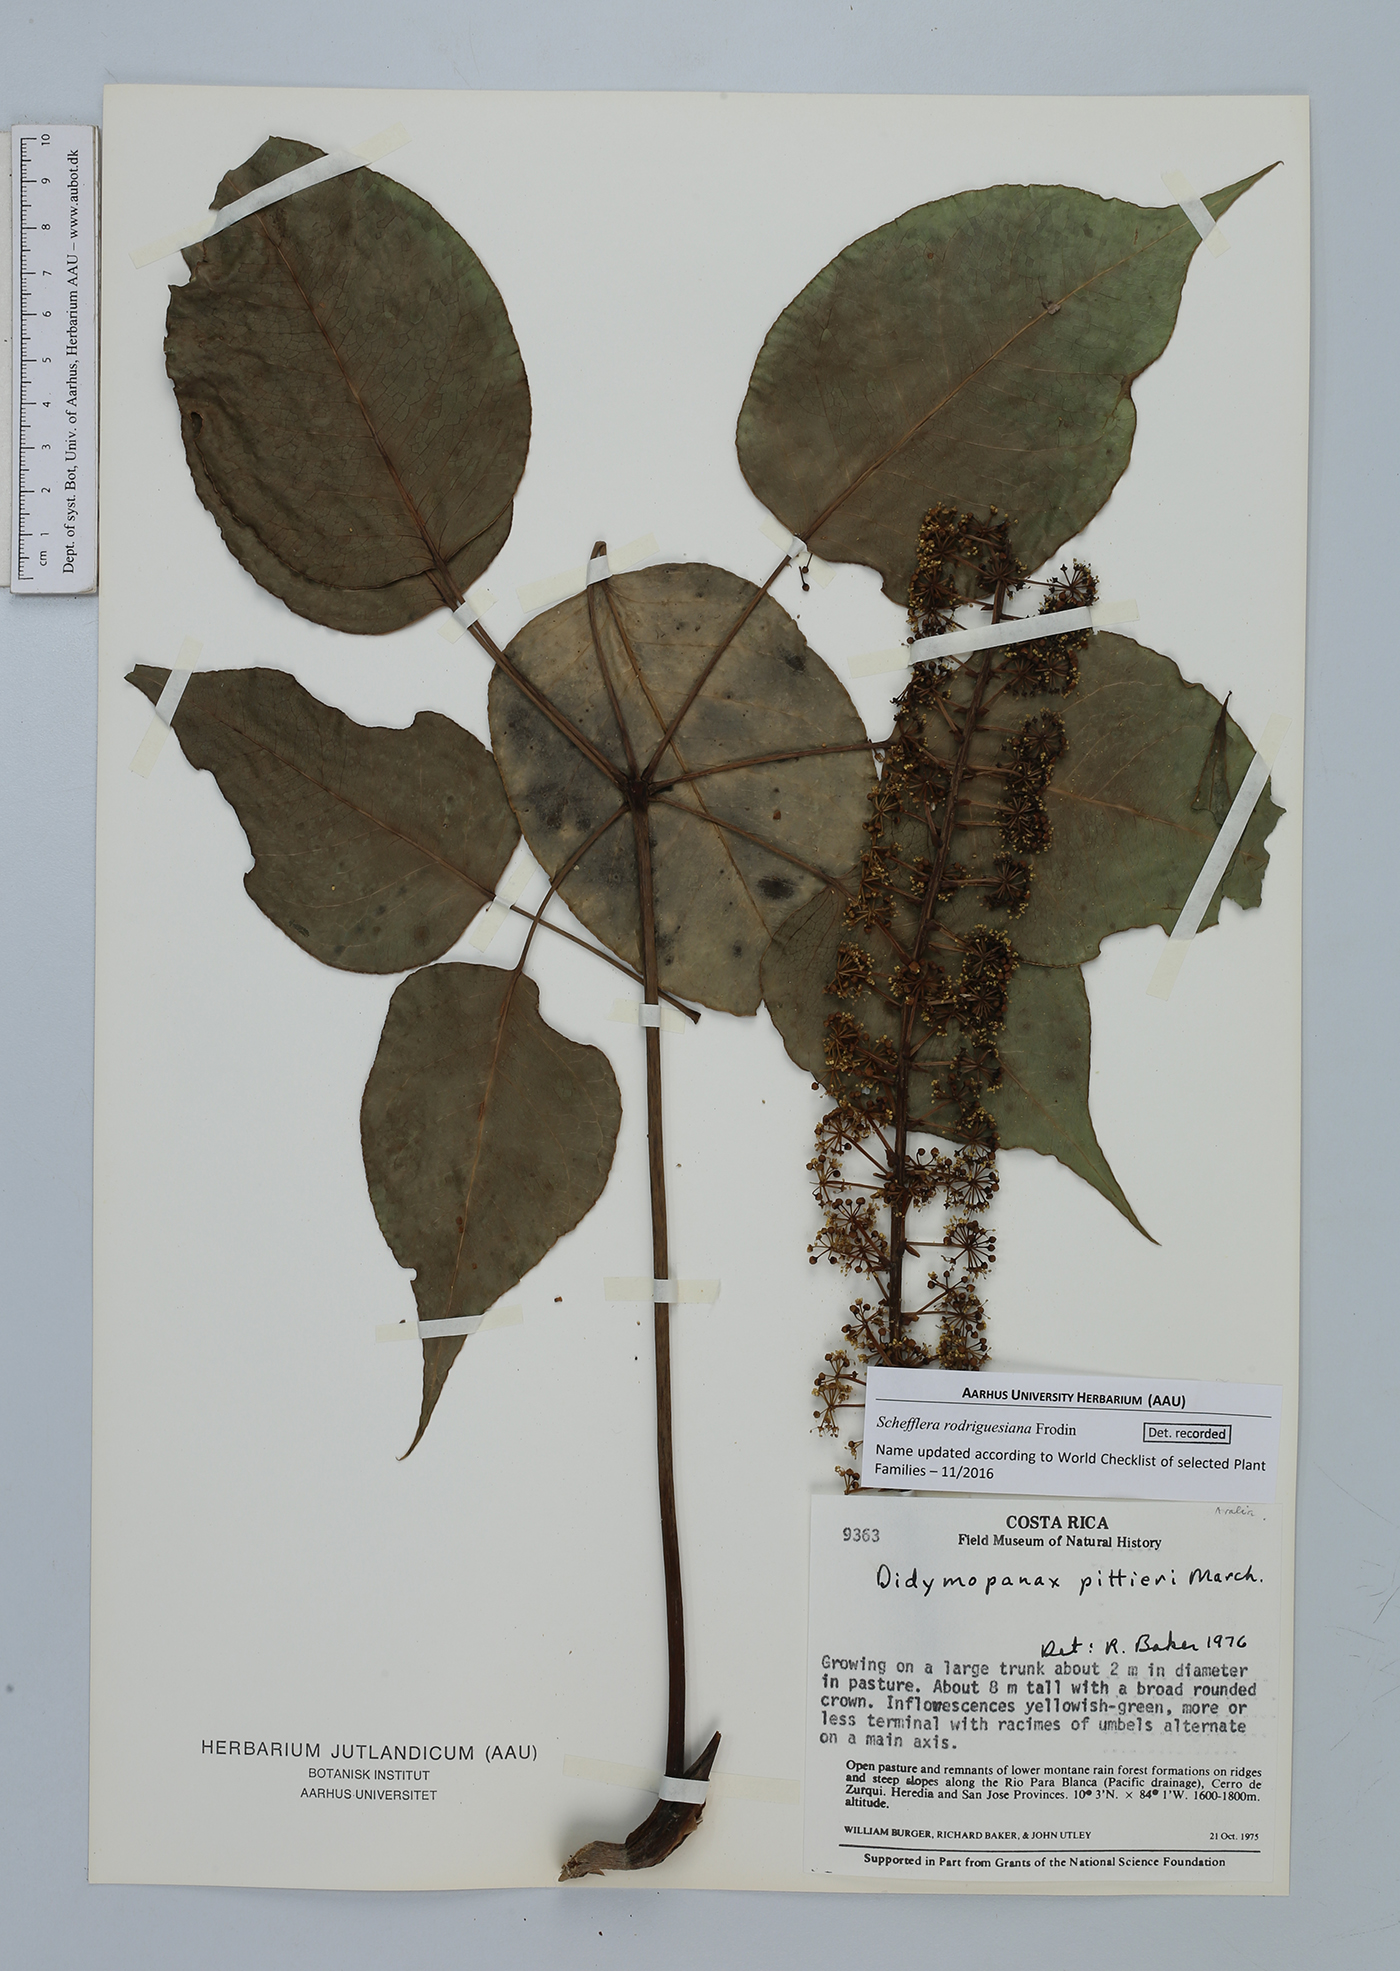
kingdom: Plantae
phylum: Tracheophyta
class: Magnoliopsida
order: Apiales
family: Araliaceae
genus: Sciodaphyllum
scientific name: Sciodaphyllum pittieri
